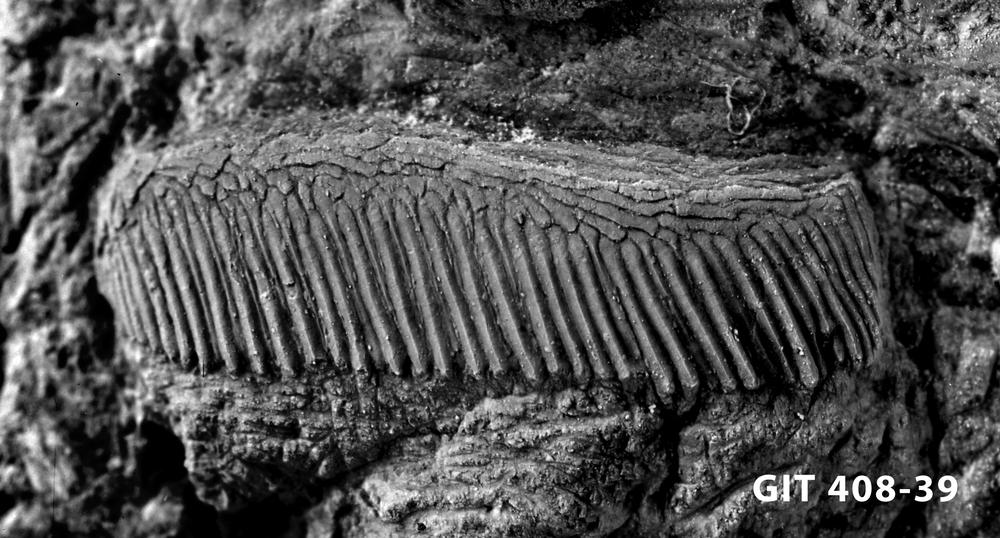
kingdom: Animalia
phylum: Chordata
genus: Archegonaspis
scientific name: Archegonaspis
